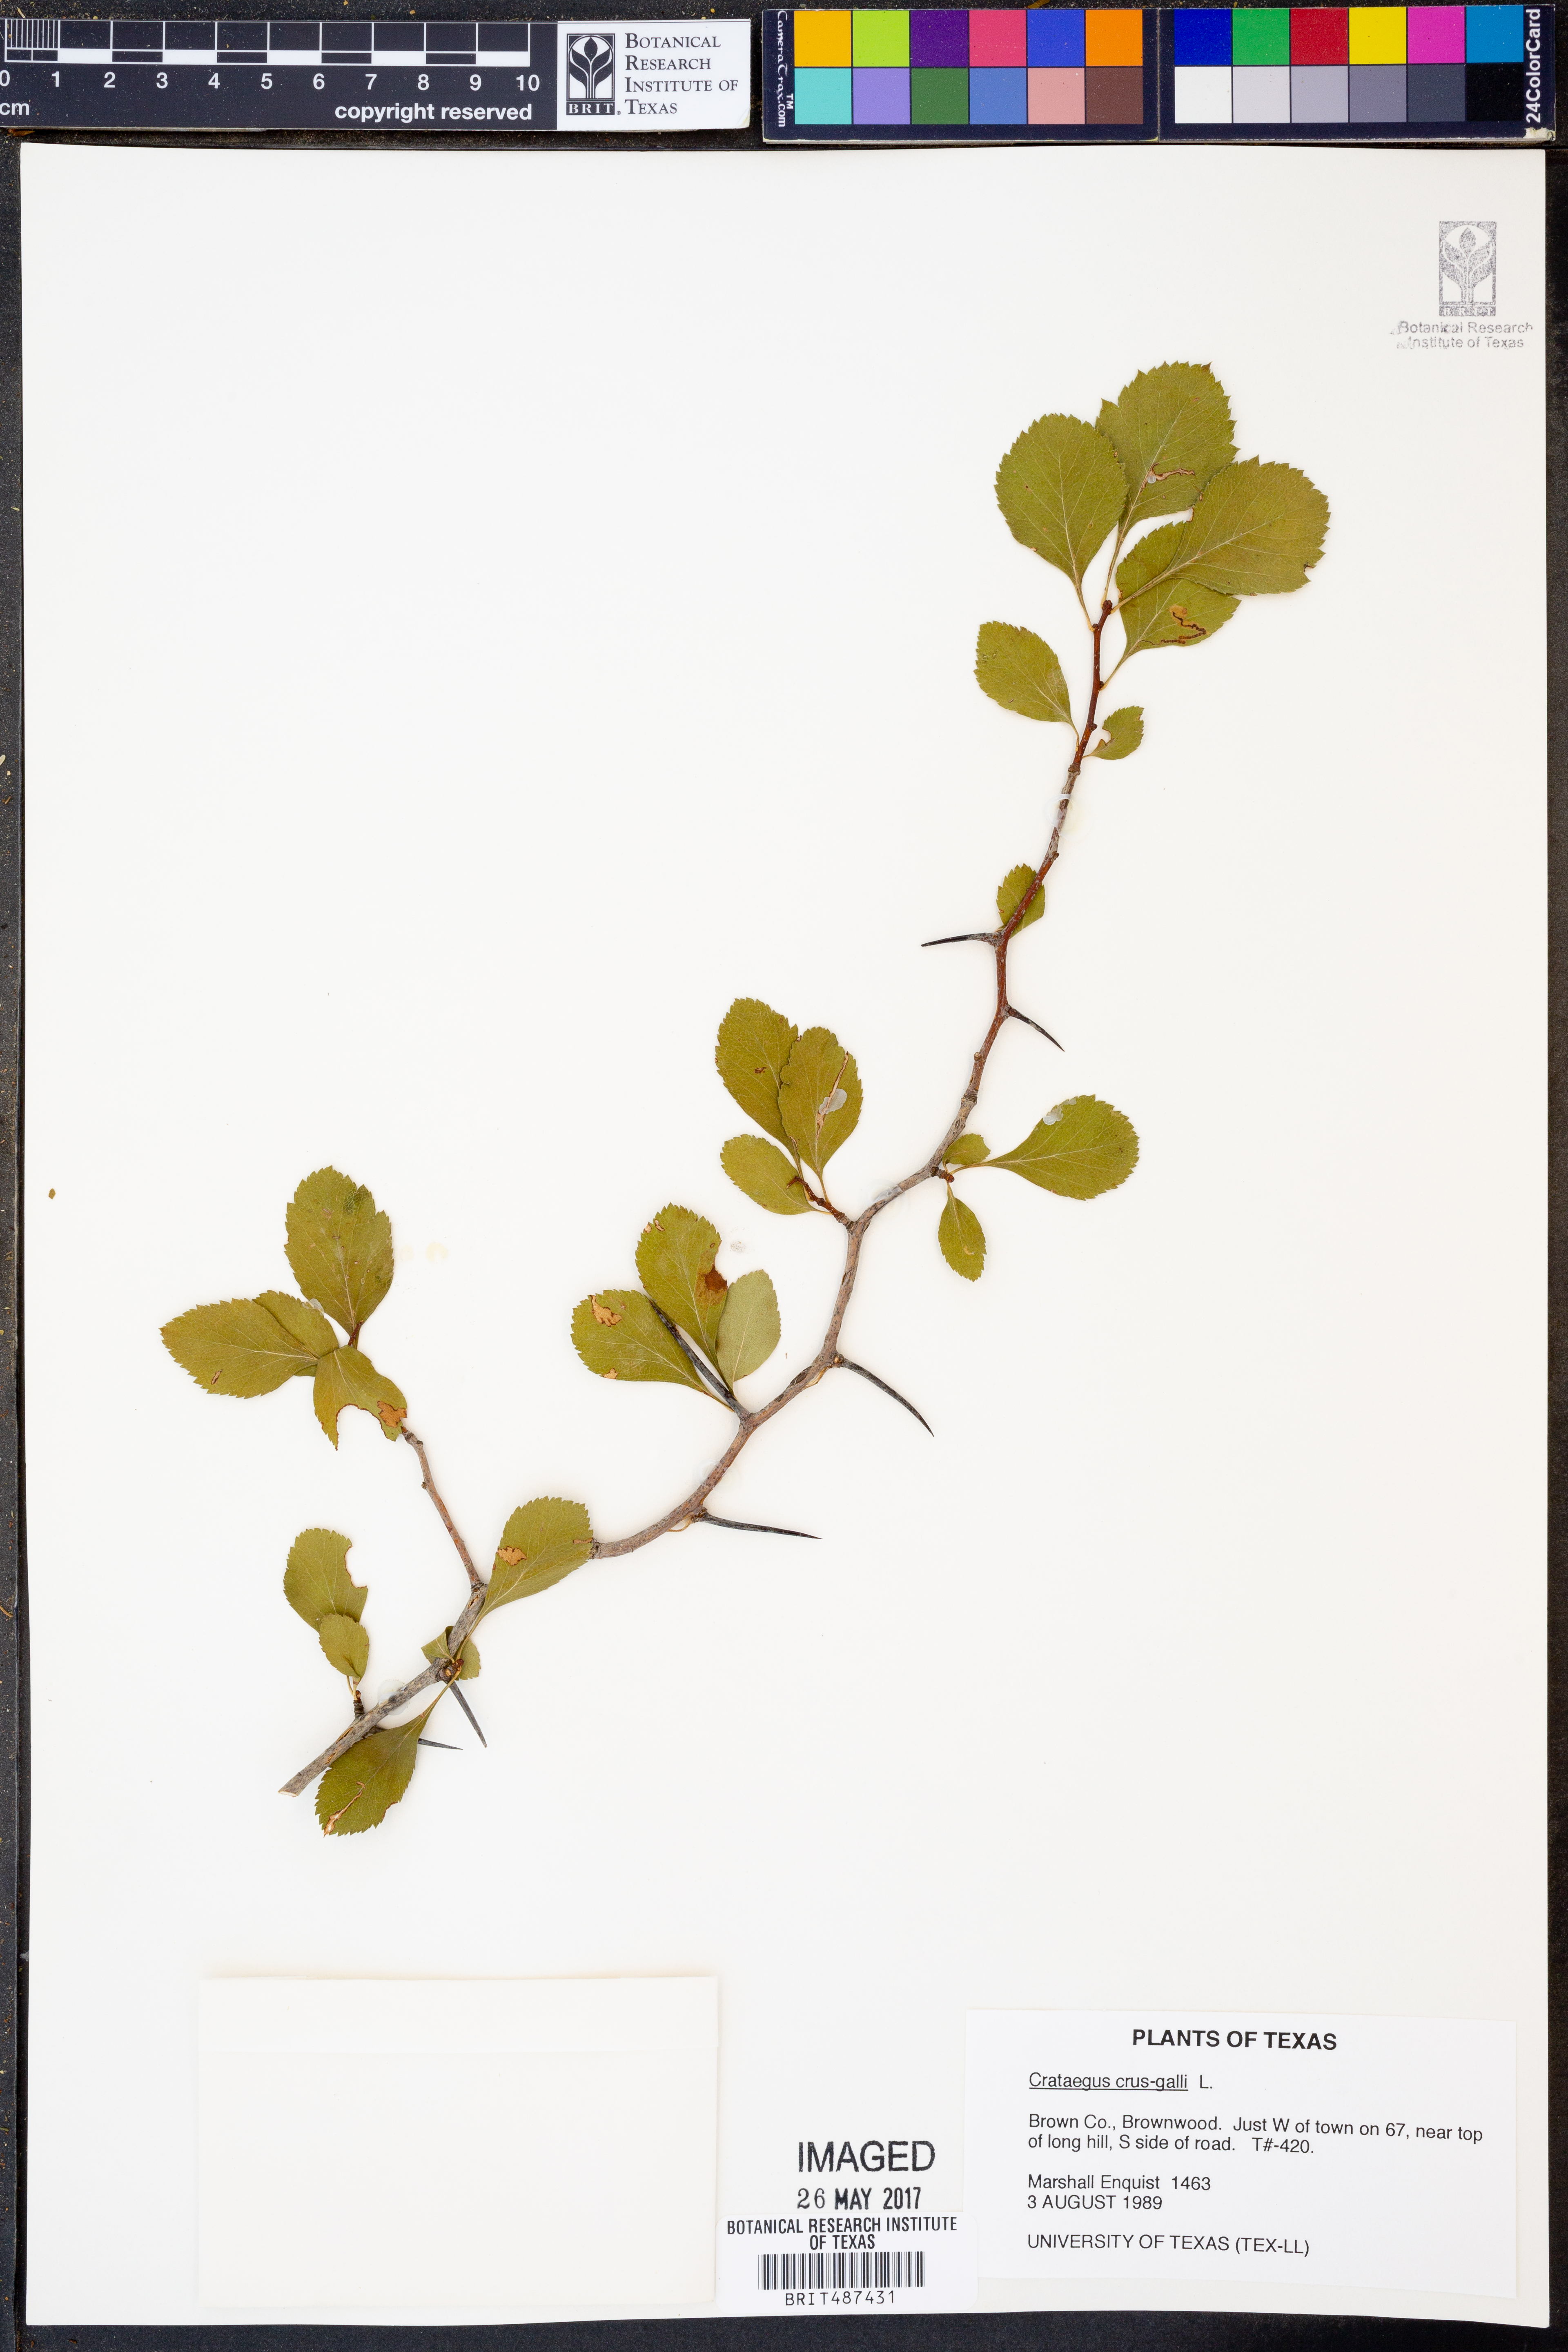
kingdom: Plantae
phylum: Tracheophyta
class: Magnoliopsida
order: Rosales
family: Rosaceae
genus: Crataegus
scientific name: Crataegus crus-galli
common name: Cockspurthorn
